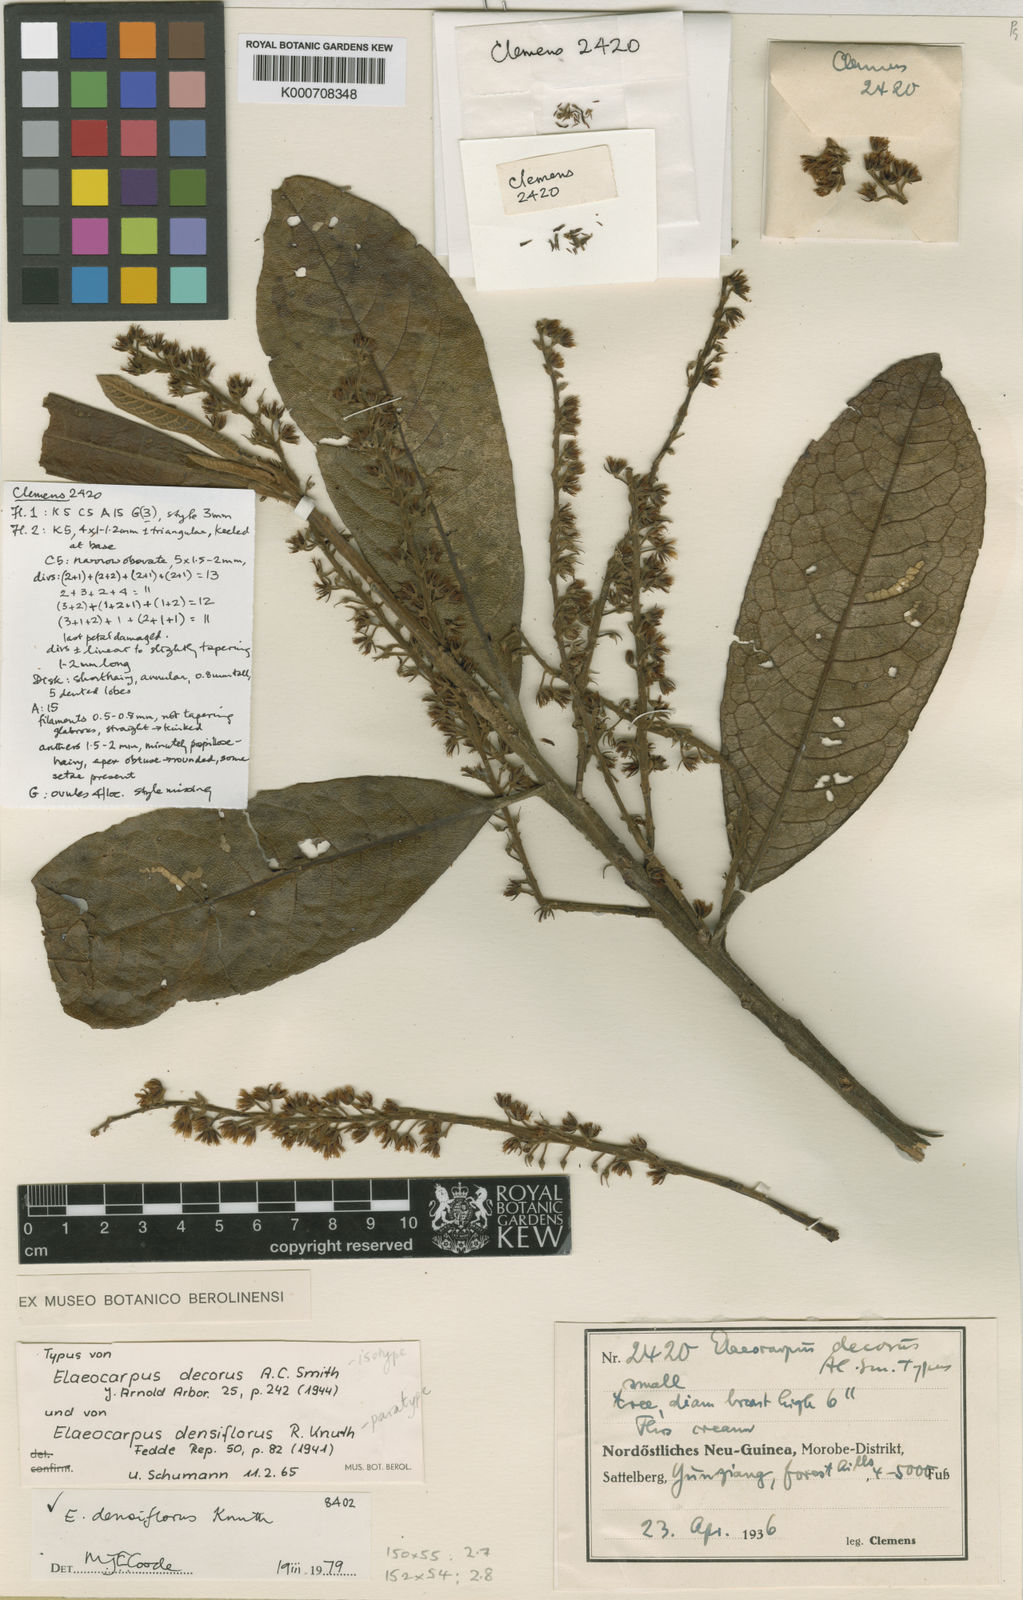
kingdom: Plantae
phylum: Tracheophyta
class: Magnoliopsida
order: Oxalidales
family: Elaeocarpaceae
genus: Elaeocarpus
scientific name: Elaeocarpus densiflorus
